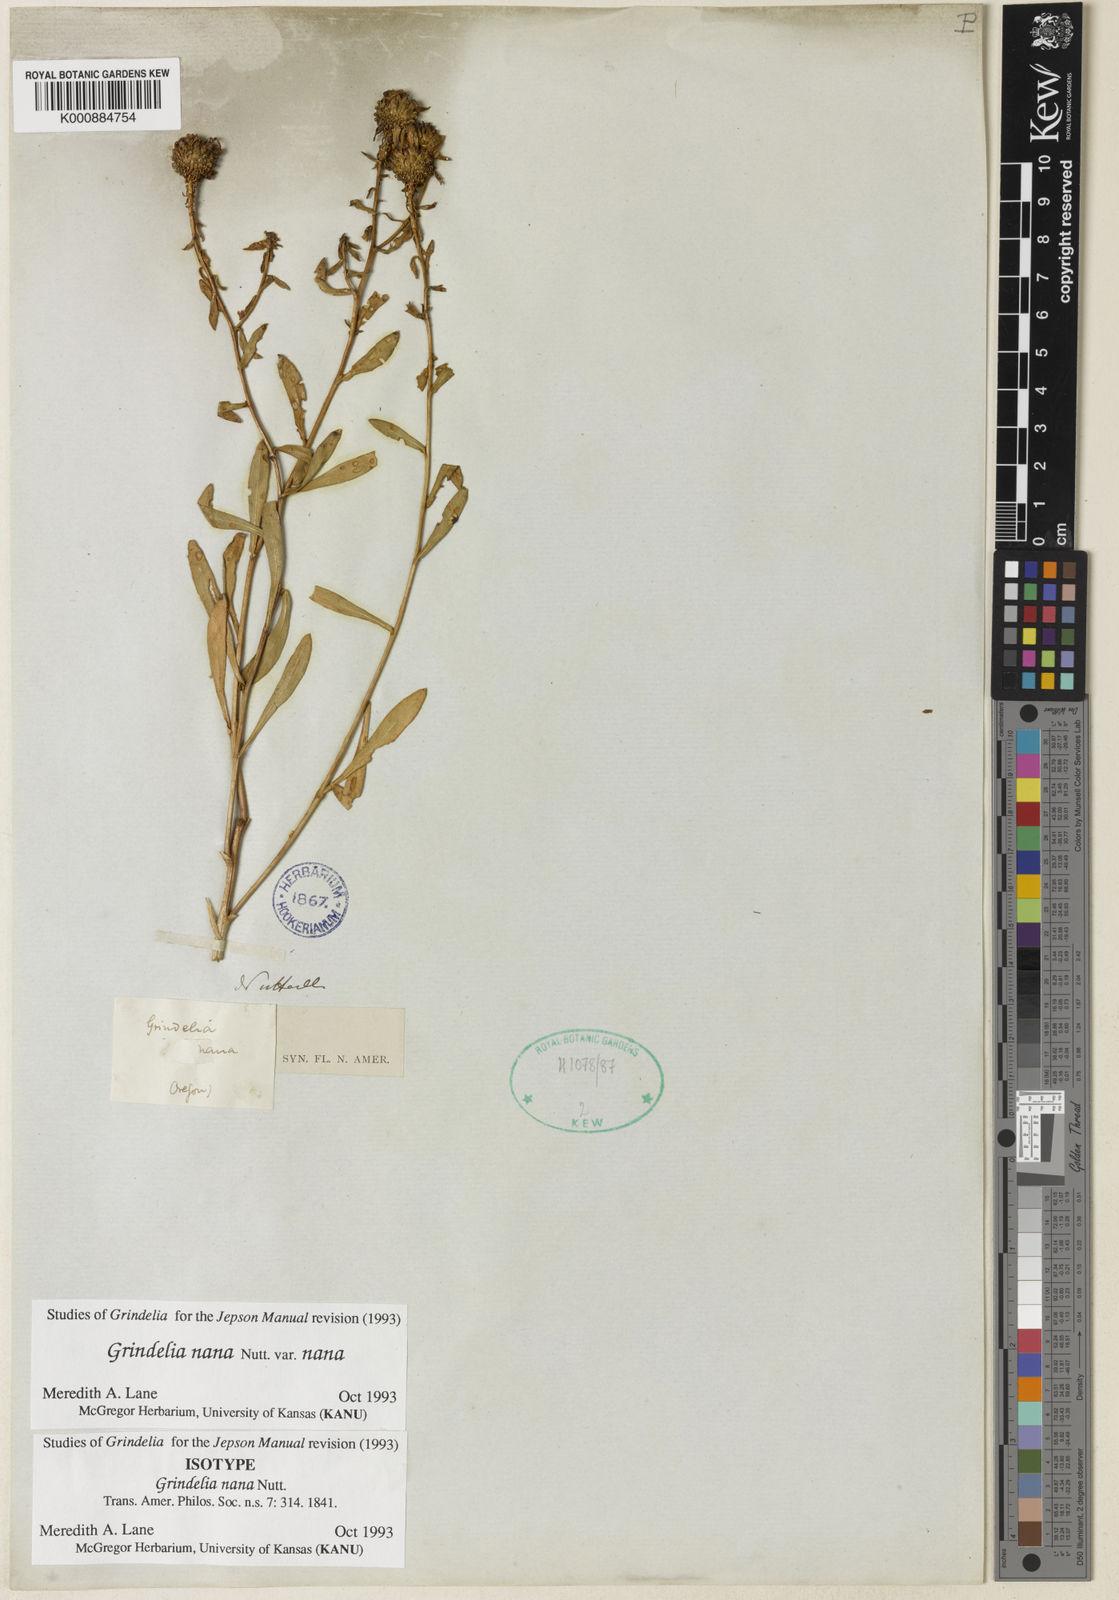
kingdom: Plantae
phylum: Tracheophyta
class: Magnoliopsida
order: Asterales
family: Asteraceae
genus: Grindelia
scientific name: Grindelia hirsutula
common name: Hairy gumweed
